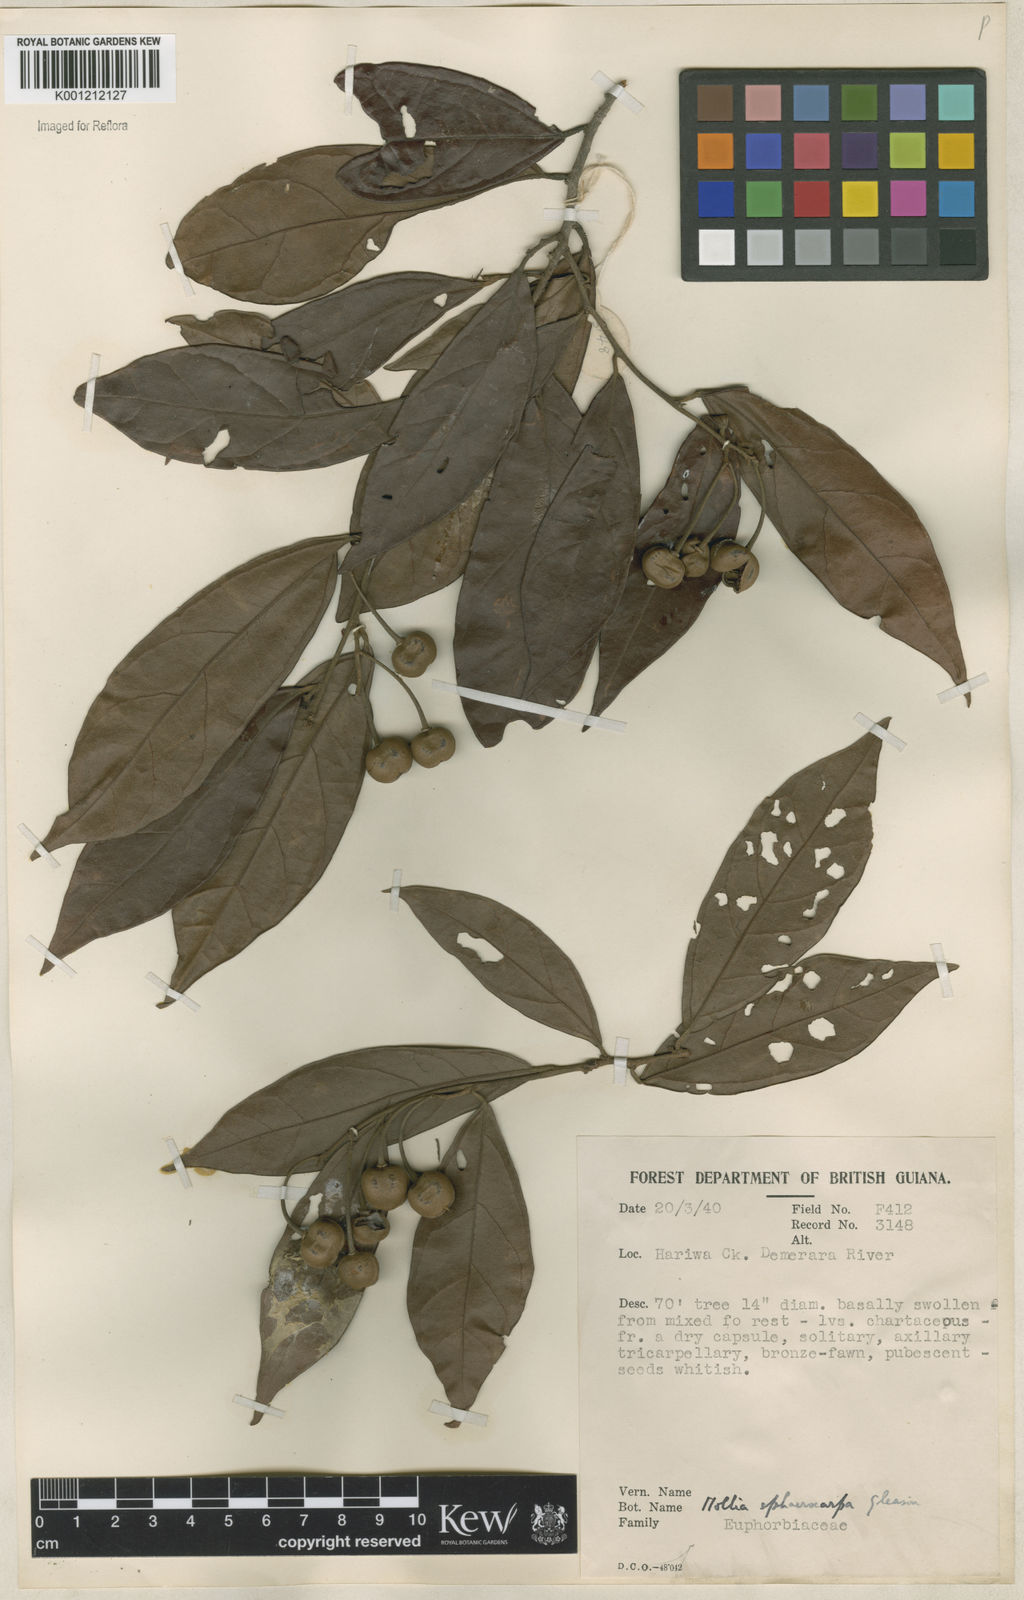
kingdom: Plantae
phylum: Tracheophyta
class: Magnoliopsida
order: Malvales
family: Malvaceae
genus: Mollia
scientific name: Mollia lepidota
